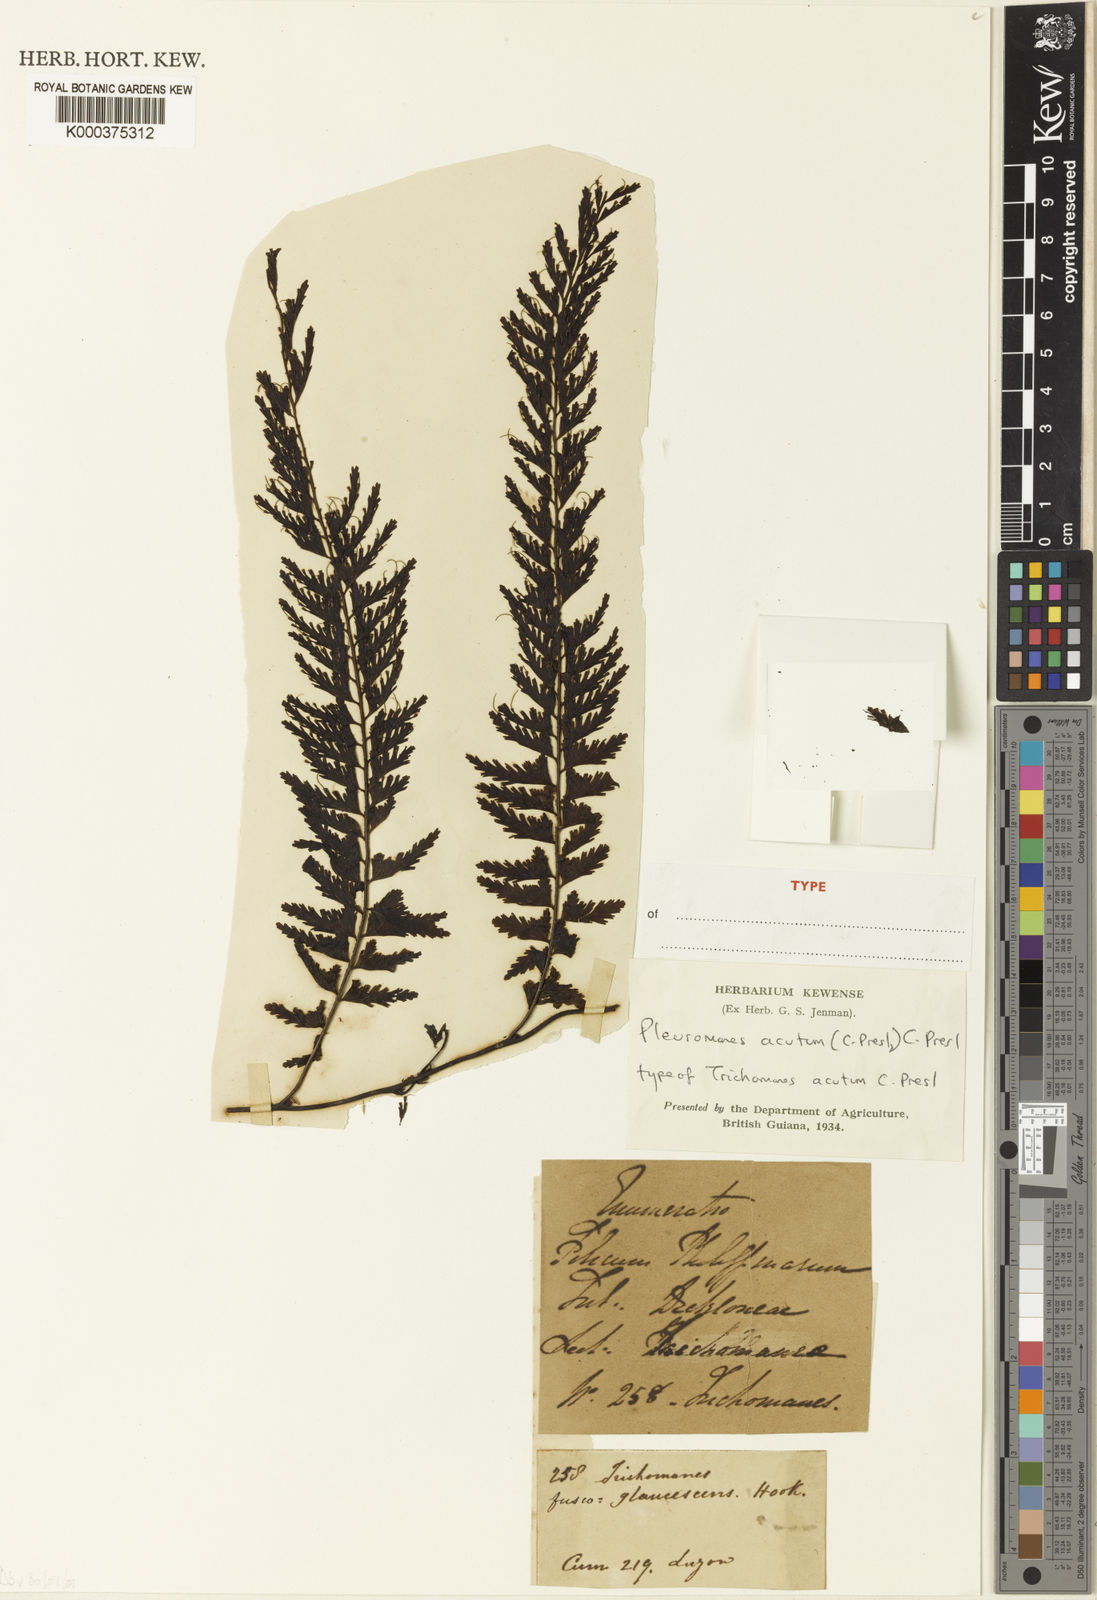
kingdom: Plantae
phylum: Tracheophyta
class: Polypodiopsida
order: Hymenophyllales
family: Hymenophyllaceae
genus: Hymenophyllum
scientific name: Hymenophyllum acutum
